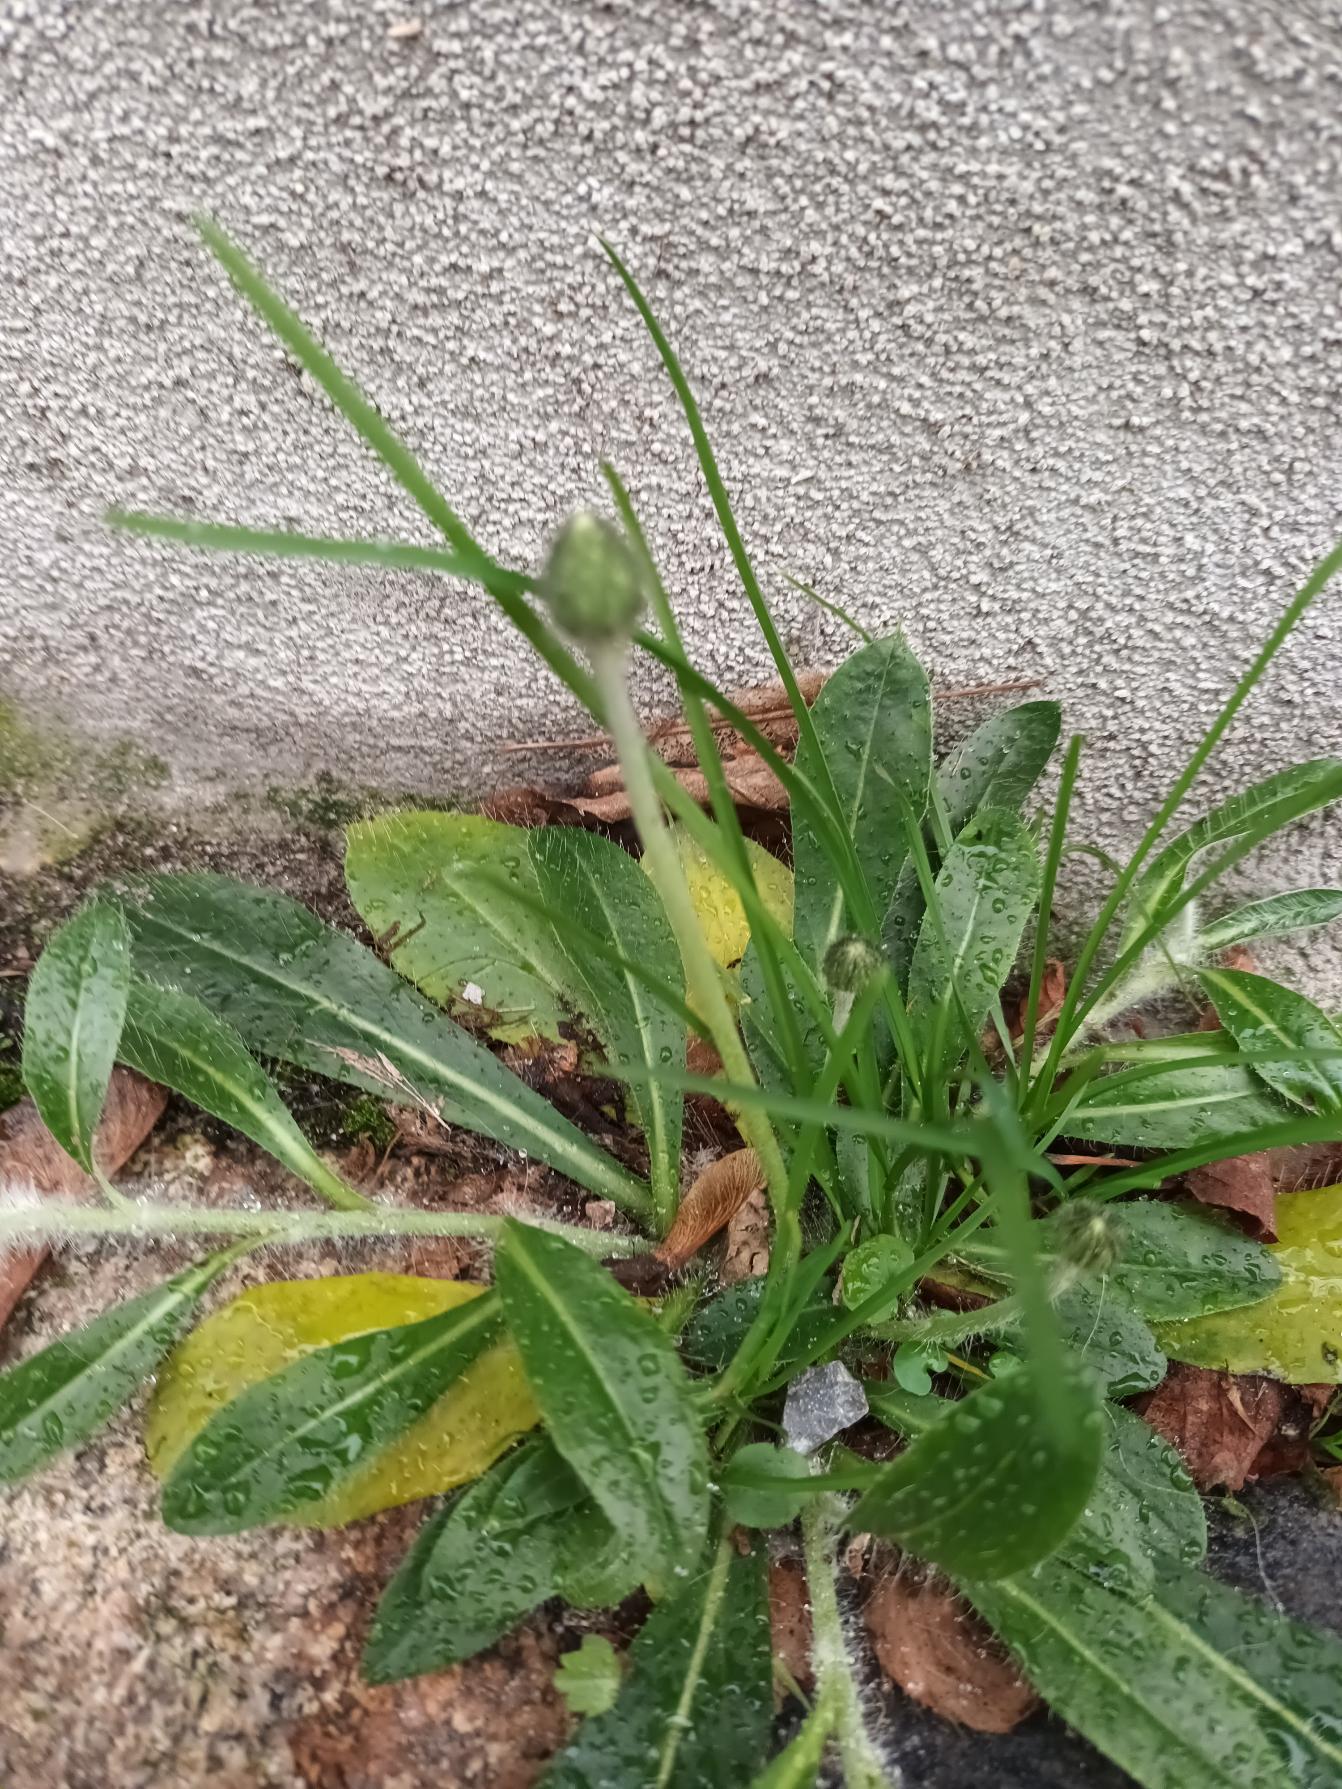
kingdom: Plantae
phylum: Tracheophyta
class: Magnoliopsida
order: Asterales
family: Asteraceae
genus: Pilosella
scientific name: Pilosella officinarum
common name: Håret høgeurt
